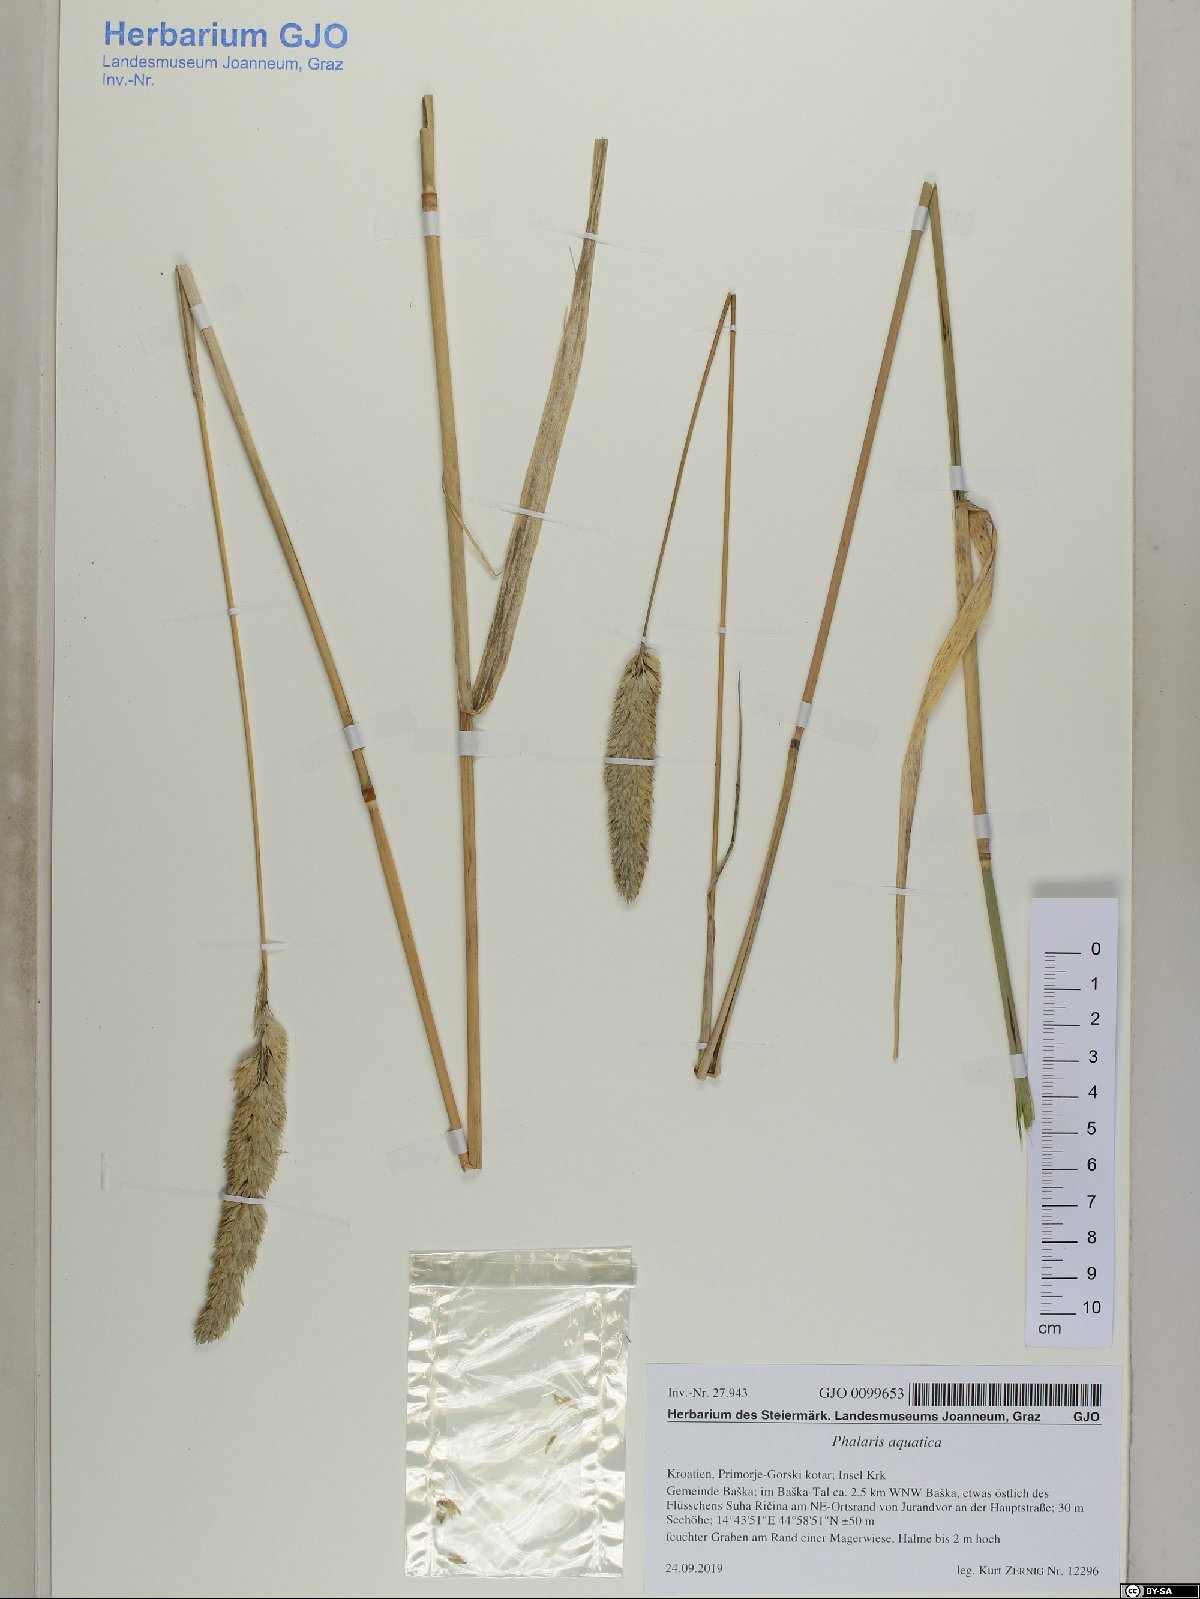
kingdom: Plantae
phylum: Tracheophyta
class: Liliopsida
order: Poales
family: Poaceae
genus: Phalaris
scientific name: Phalaris aquatica
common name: Bulbous canary-grass
